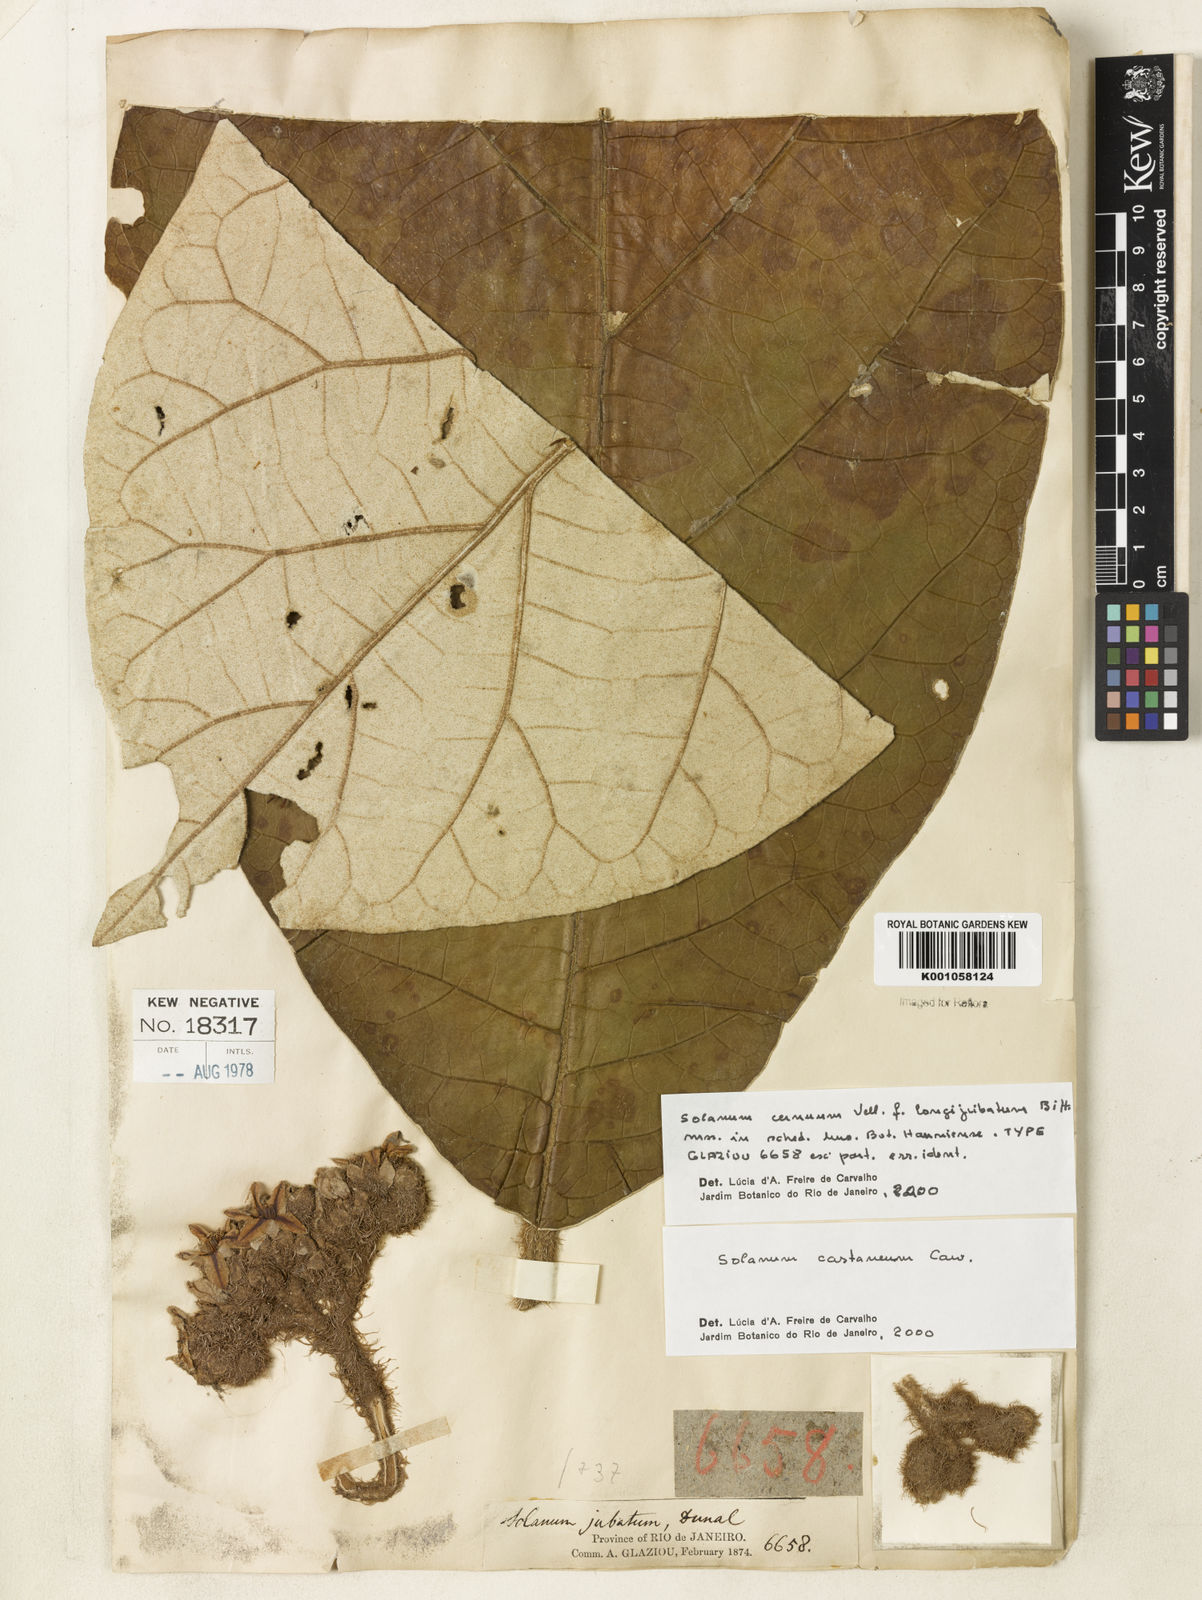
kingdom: Plantae
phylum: Tracheophyta
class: Magnoliopsida
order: Solanales
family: Solanaceae
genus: Solanum
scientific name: Solanum castaneum
